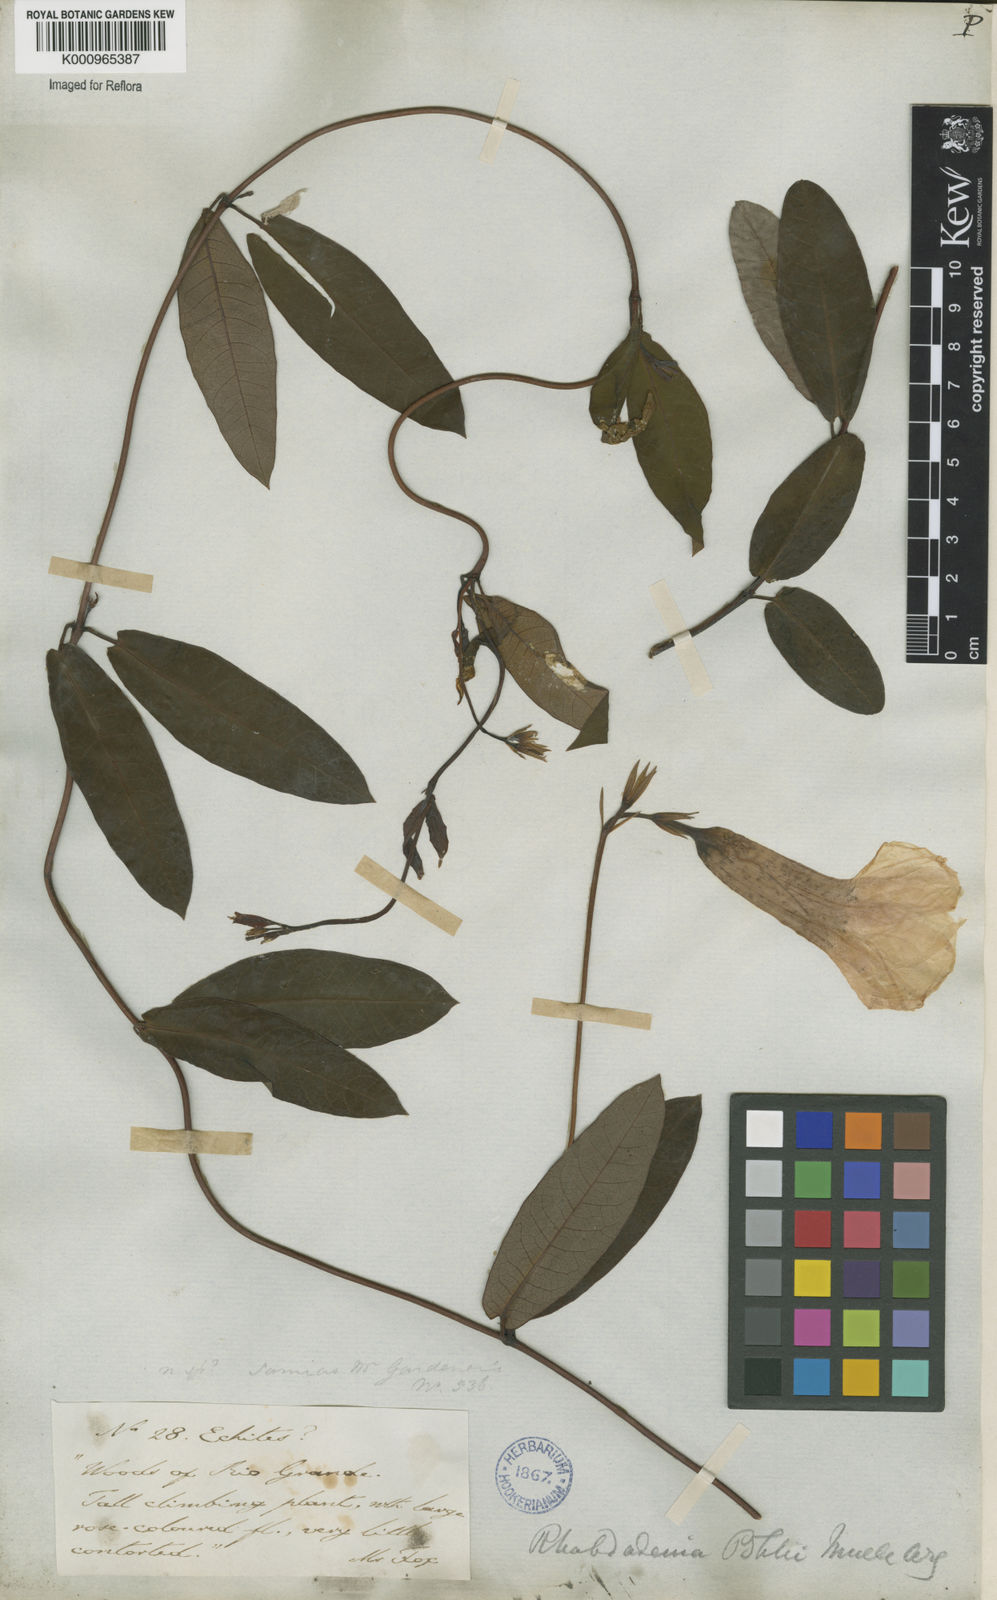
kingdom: Plantae
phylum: Tracheophyta
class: Magnoliopsida
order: Gentianales
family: Apocynaceae
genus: Rhabdadenia
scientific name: Rhabdadenia madida
